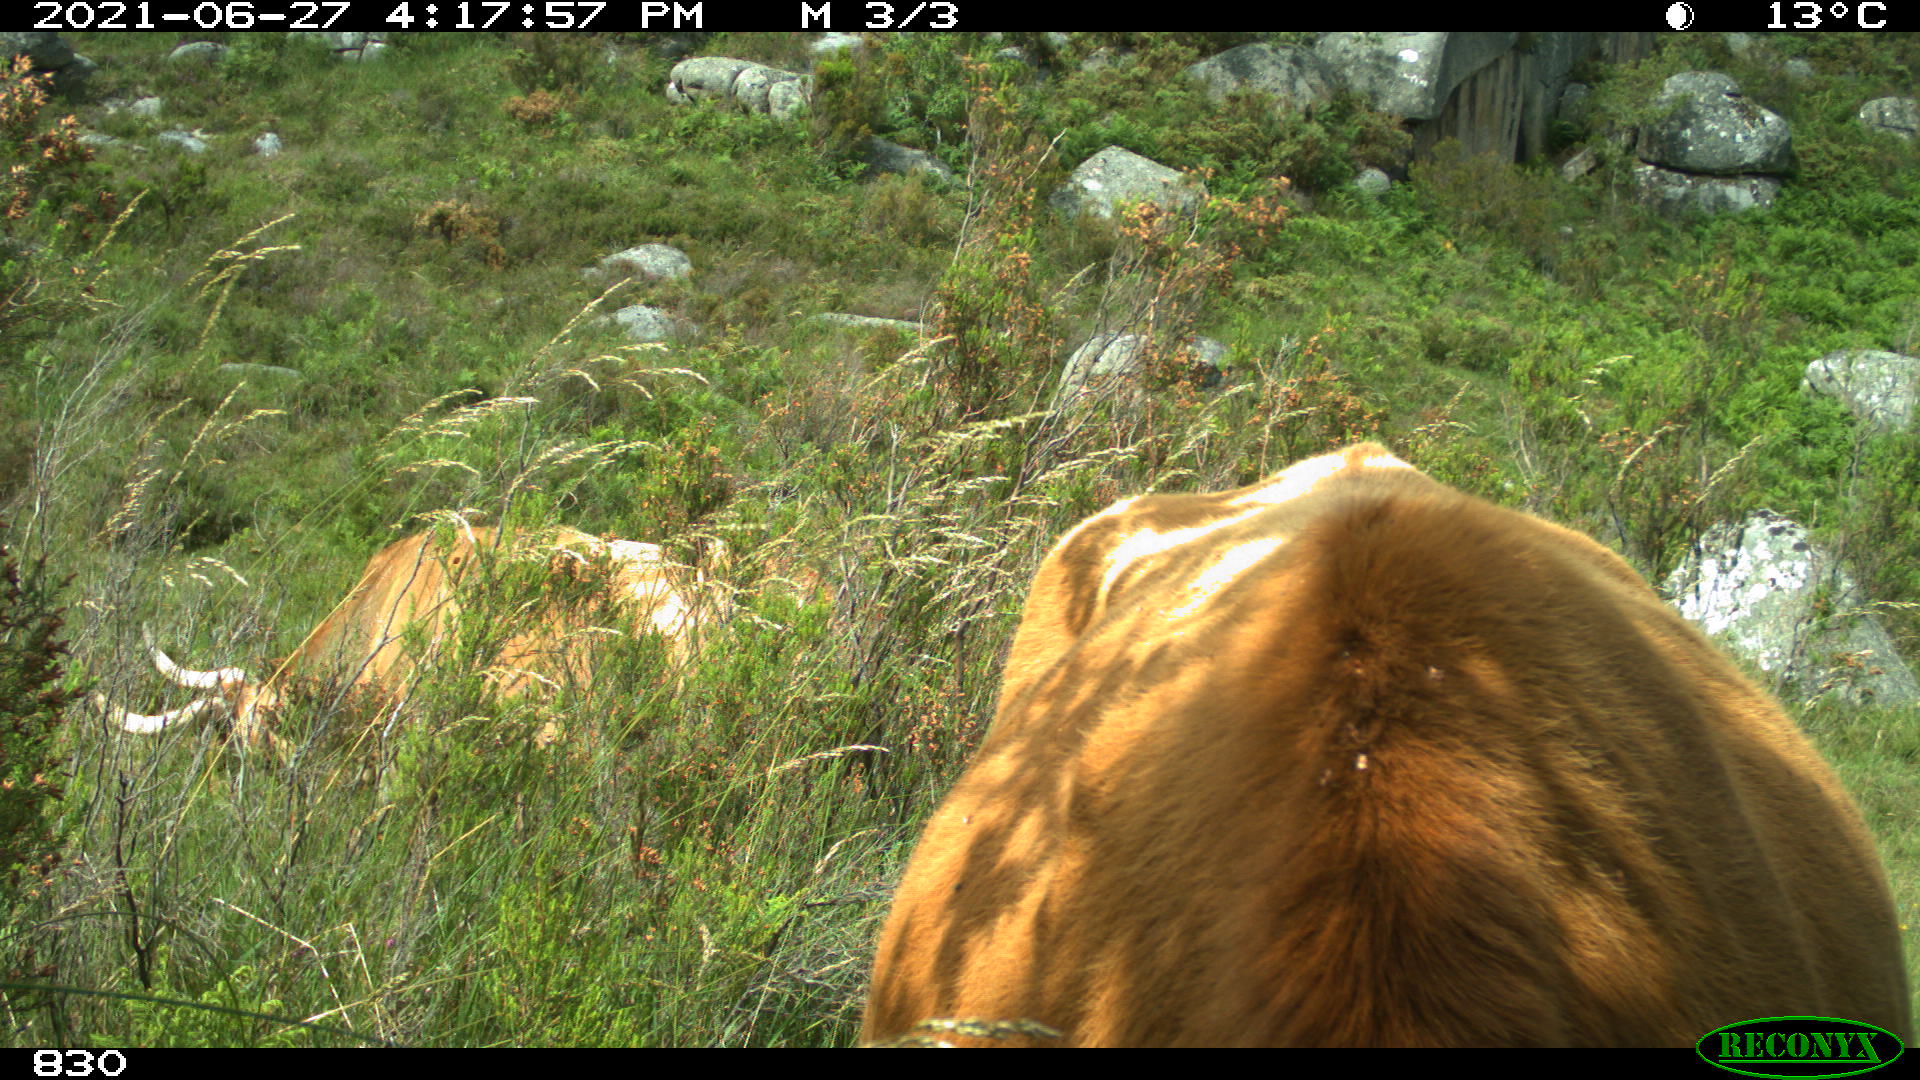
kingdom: Animalia
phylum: Chordata
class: Mammalia
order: Artiodactyla
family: Bovidae
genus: Bos
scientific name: Bos taurus
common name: Domesticated cattle
